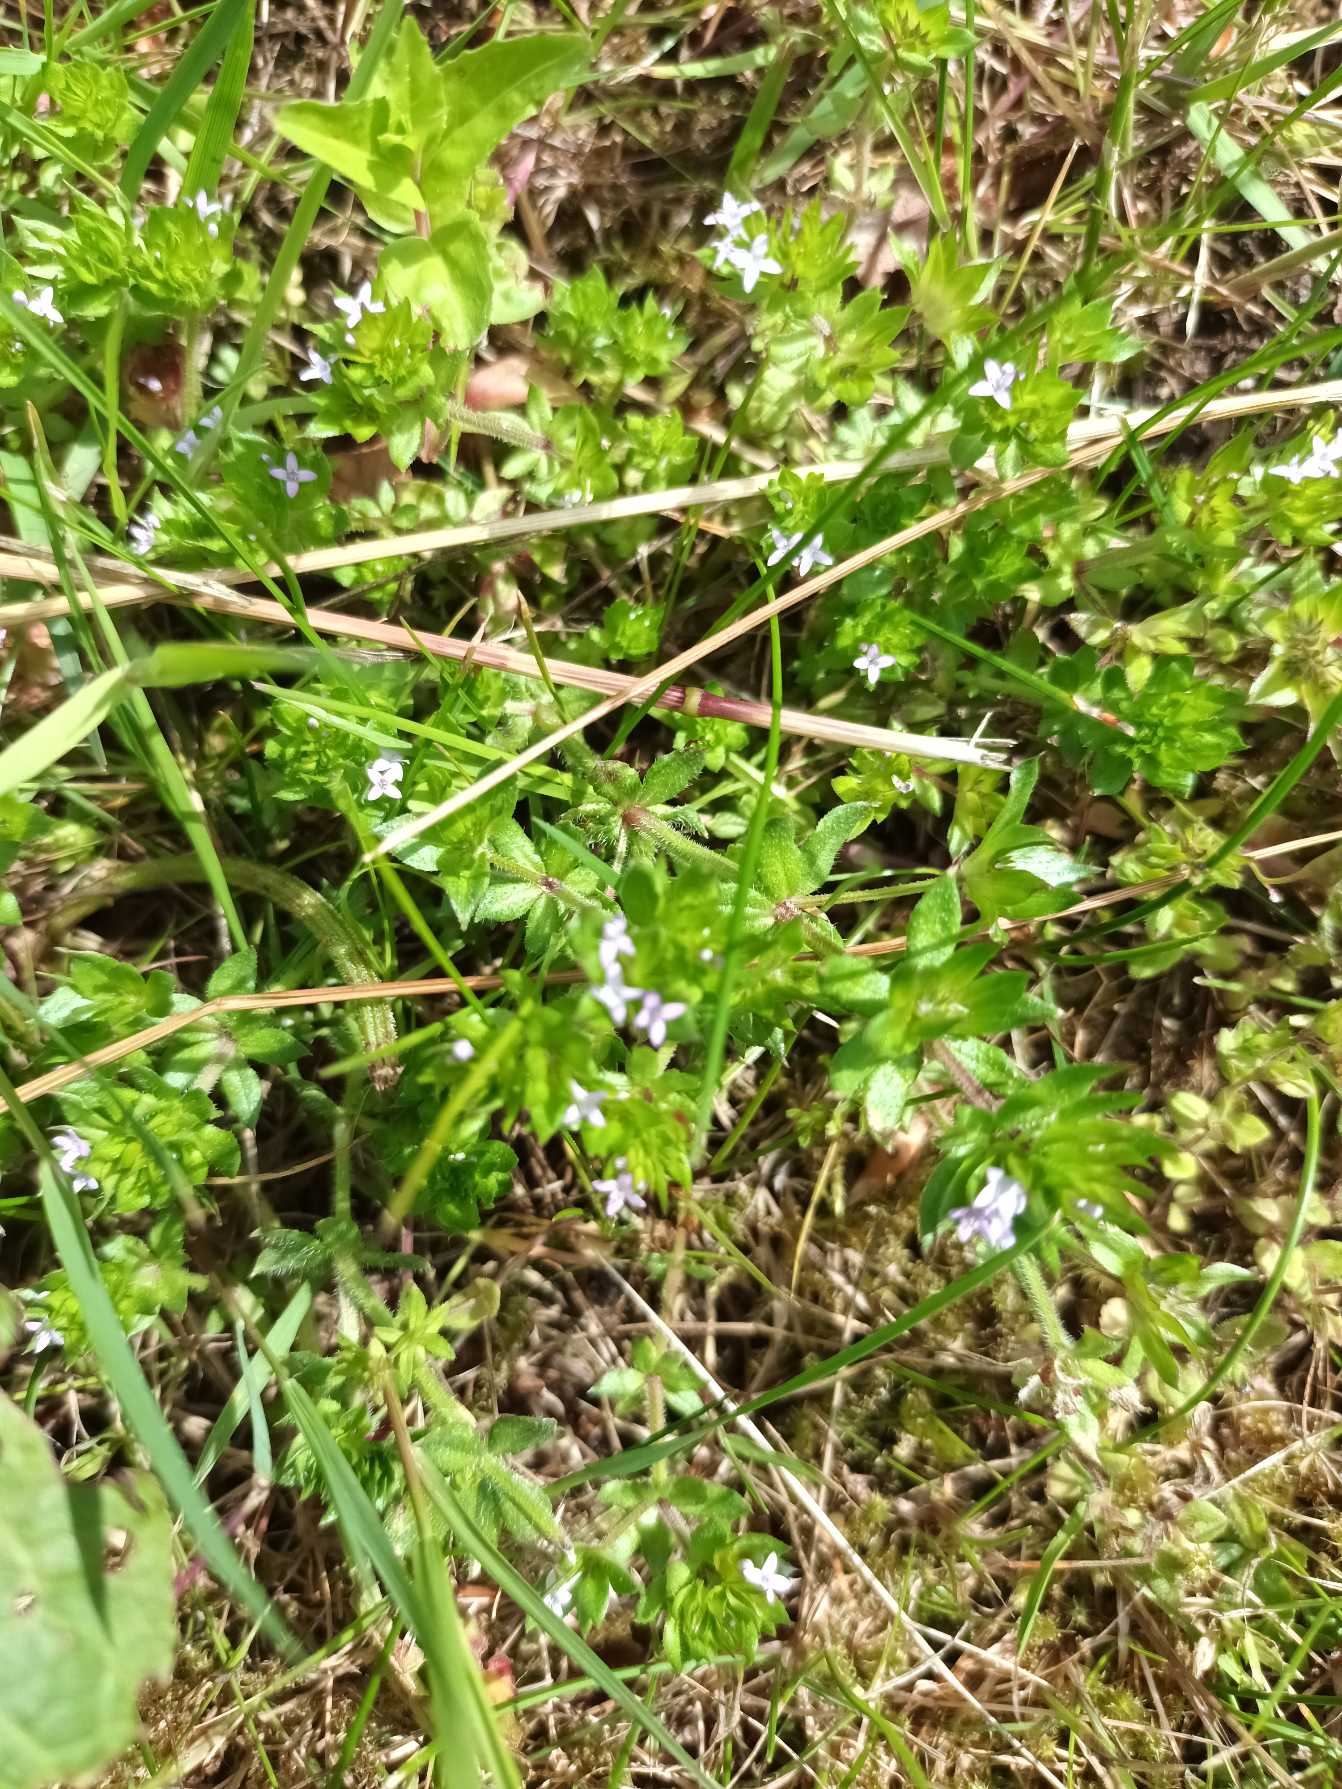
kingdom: Plantae
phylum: Tracheophyta
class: Magnoliopsida
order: Gentianales
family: Rubiaceae
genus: Sherardia
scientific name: Sherardia arvensis
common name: Blåstjerne
